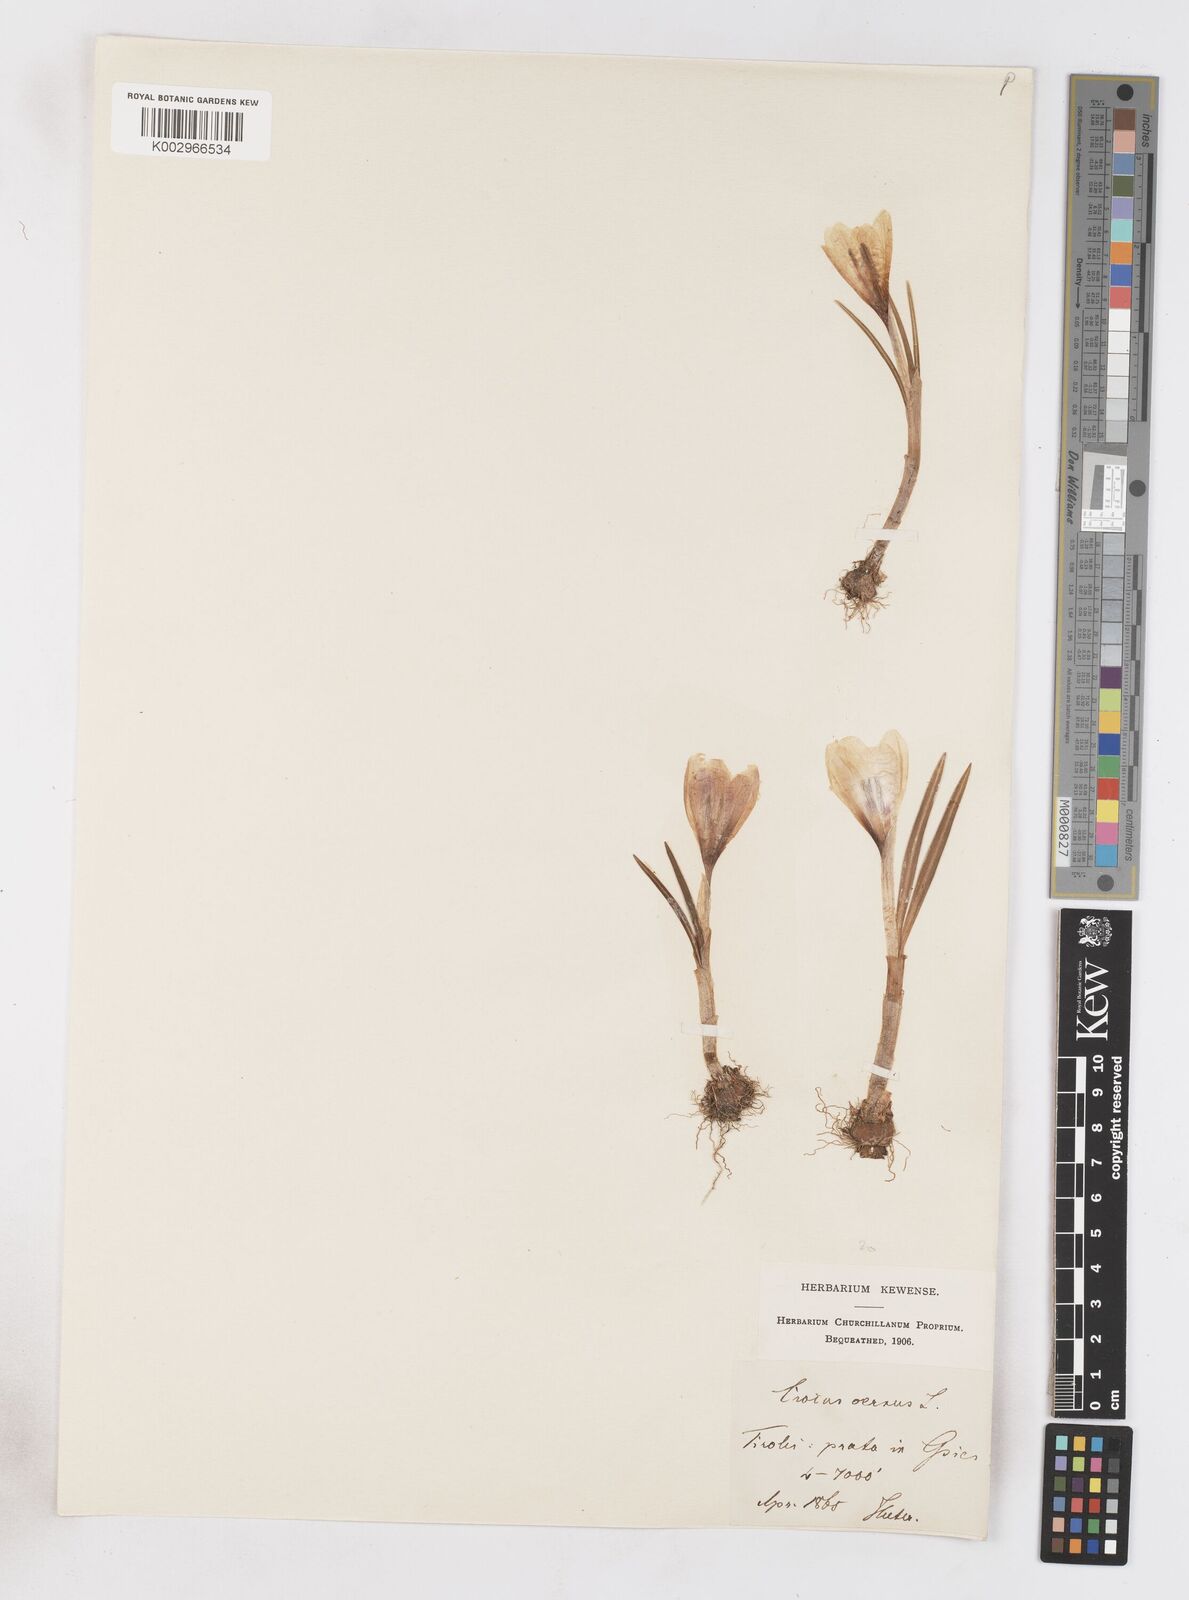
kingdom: Plantae
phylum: Tracheophyta
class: Liliopsida
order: Asparagales
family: Iridaceae
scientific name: Iridaceae
